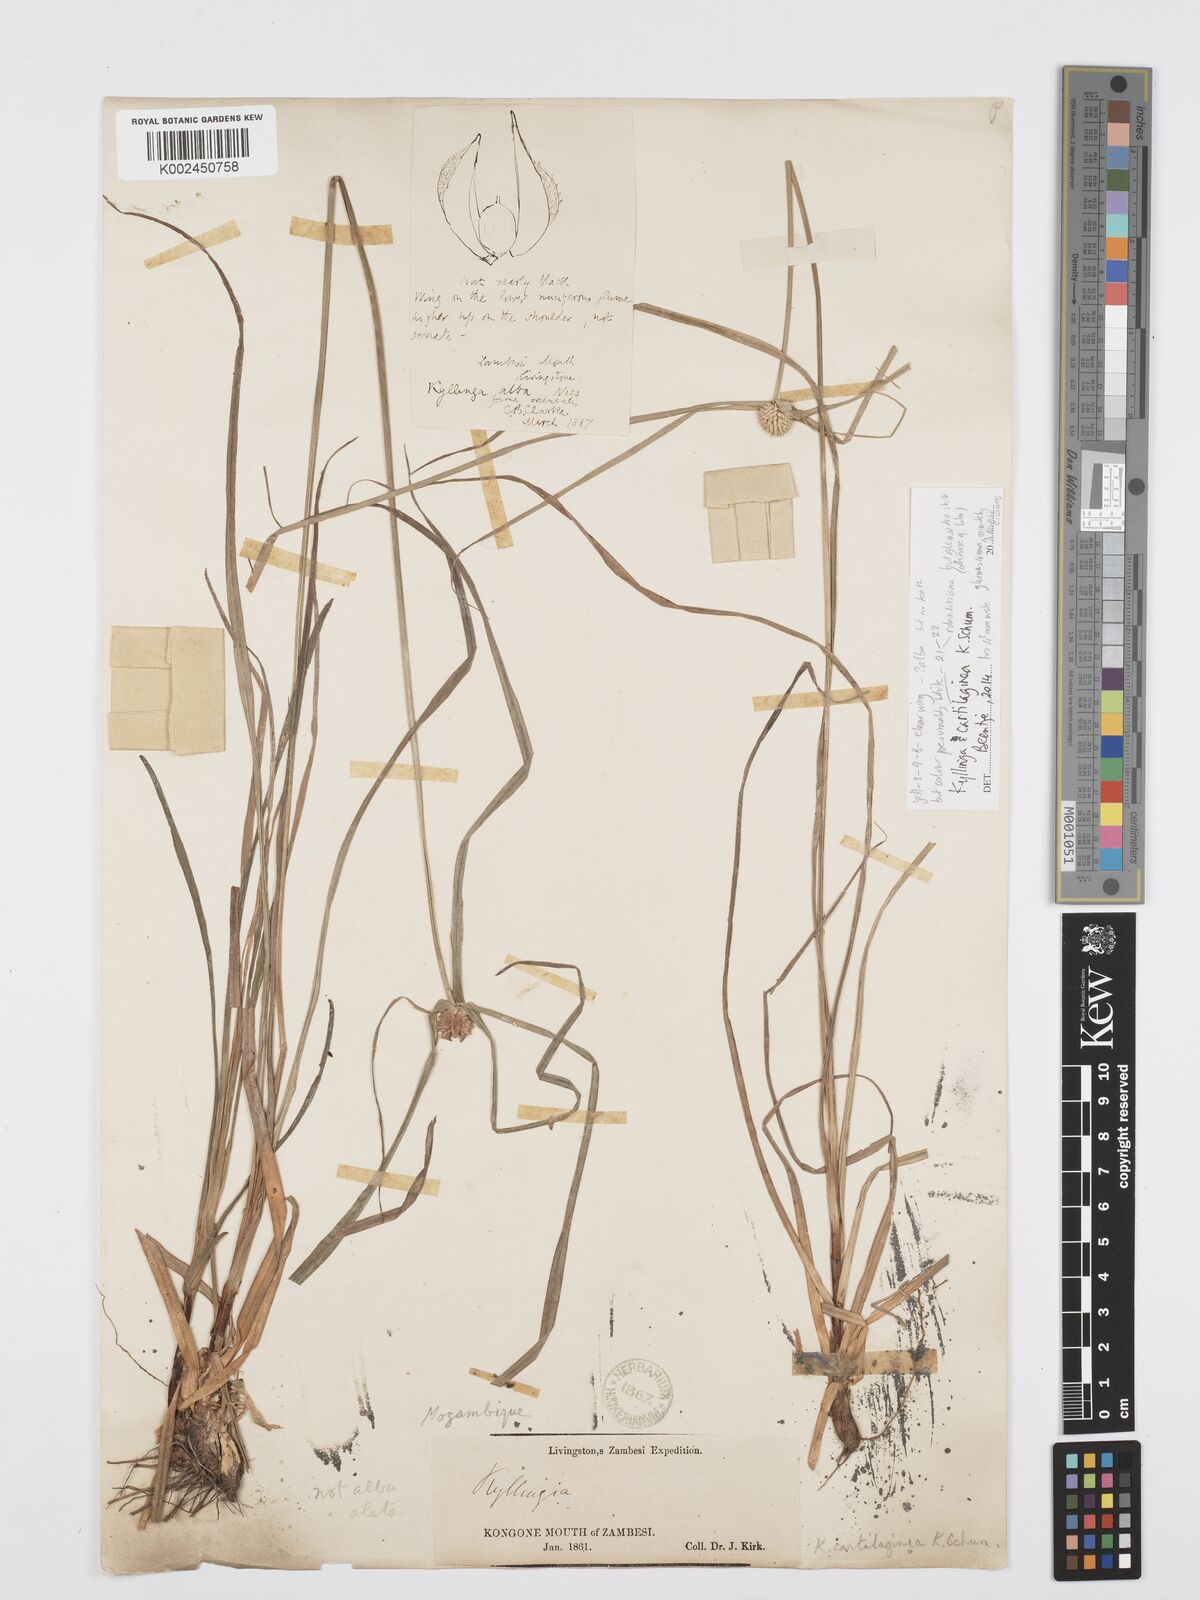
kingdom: Plantae
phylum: Tracheophyta
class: Liliopsida
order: Poales
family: Cyperaceae
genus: Cyperus
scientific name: Cyperus cartilagineus
